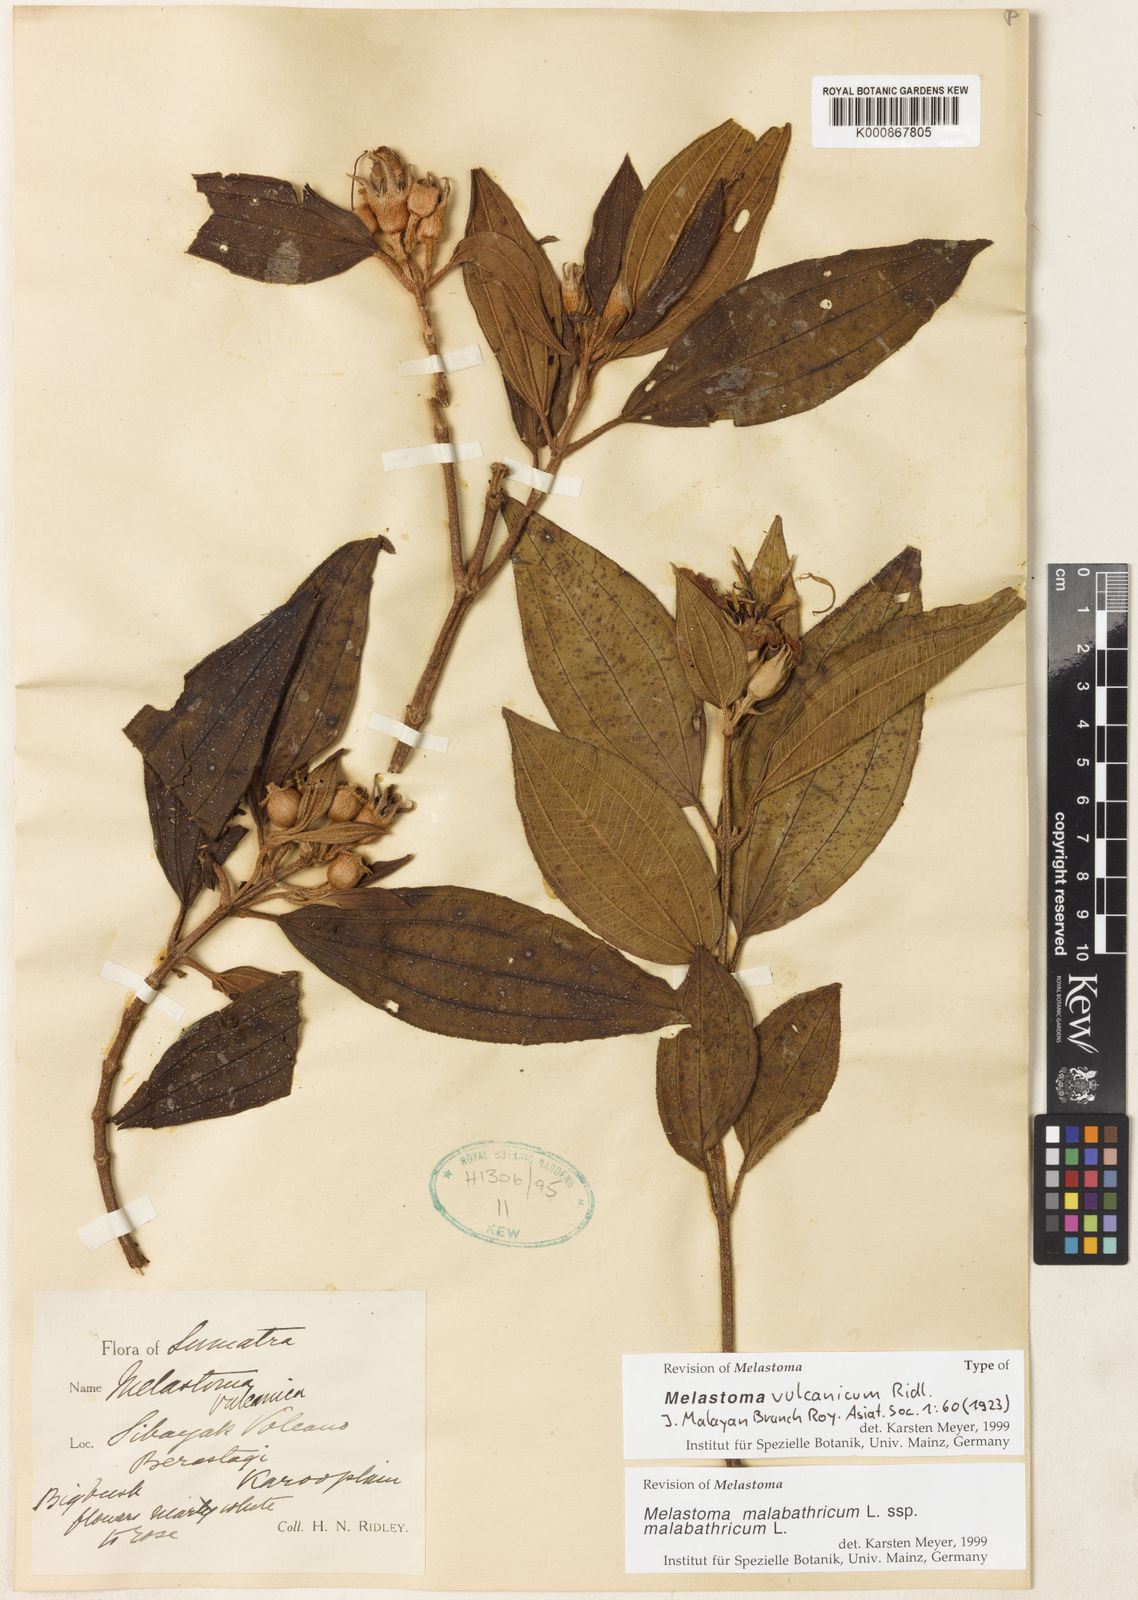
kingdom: Plantae
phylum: Tracheophyta
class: Magnoliopsida
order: Myrtales
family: Melastomataceae
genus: Melastoma
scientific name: Melastoma malabathricum
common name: Indian-rhododendron
